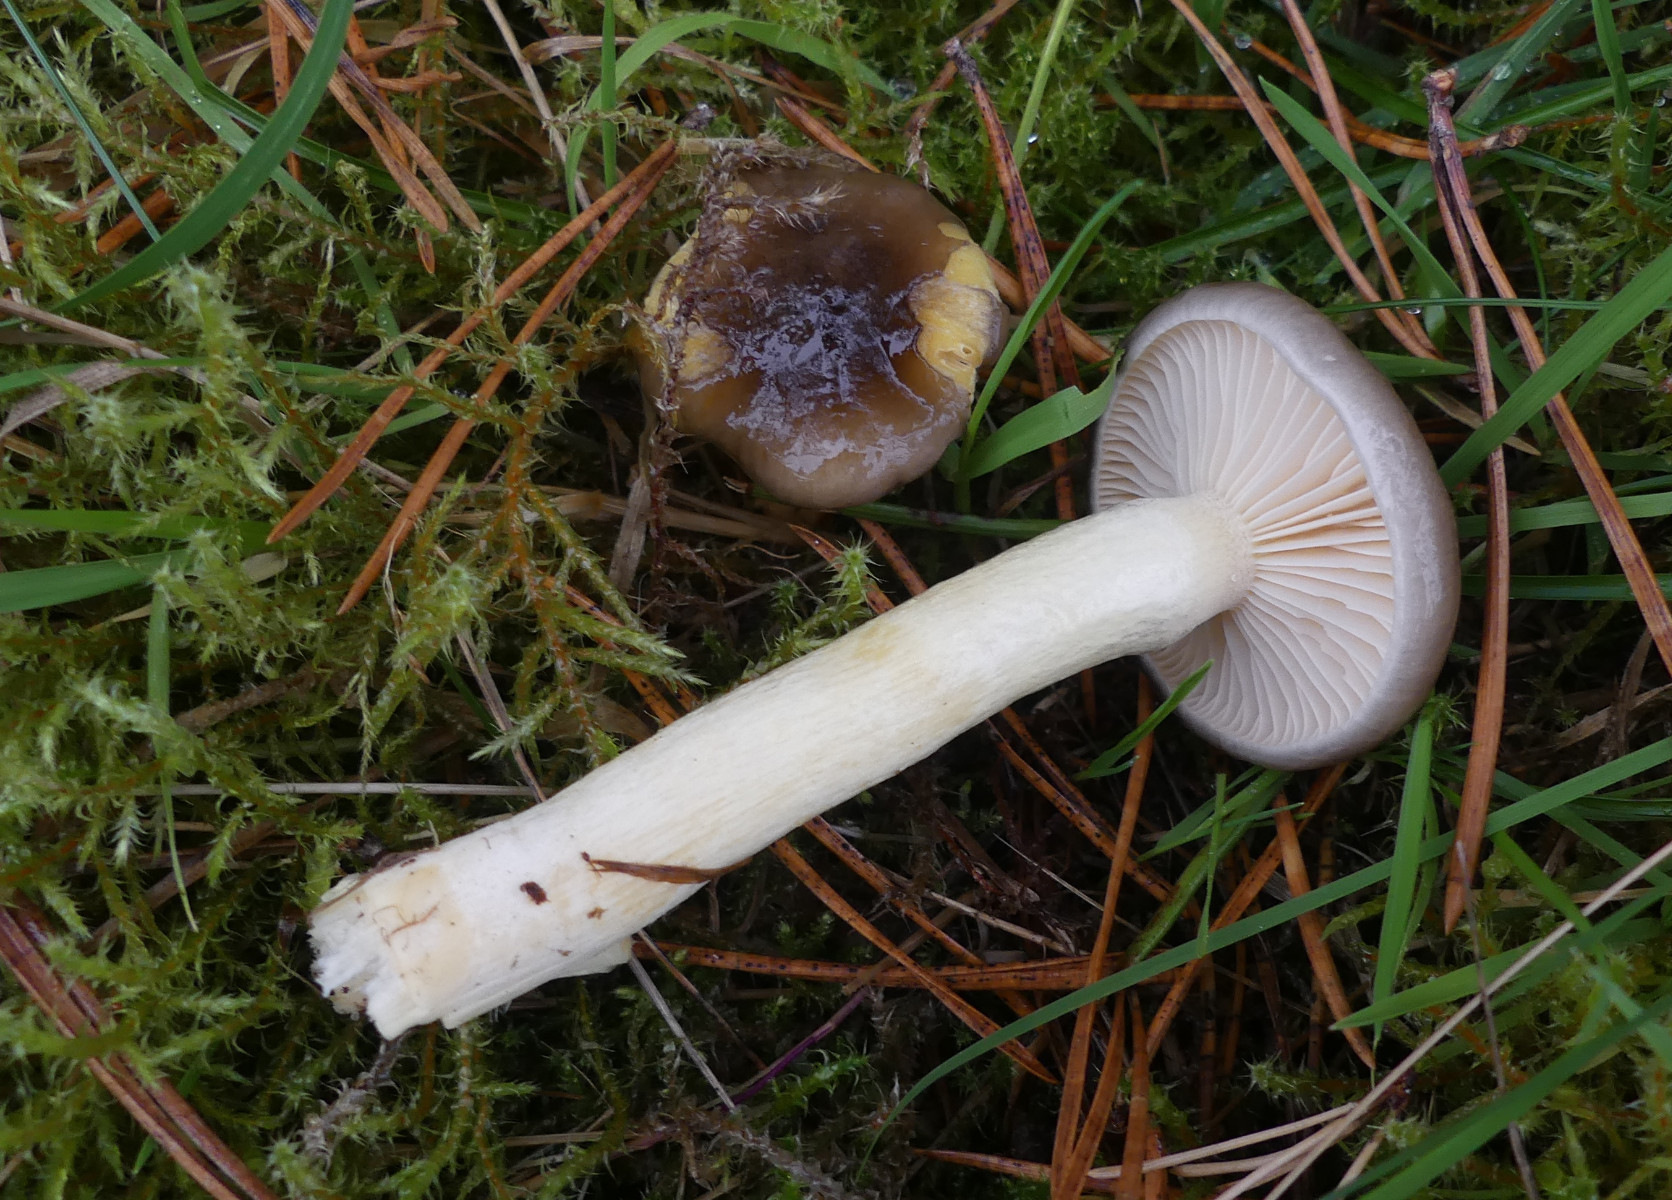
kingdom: Fungi
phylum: Basidiomycota
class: Agaricomycetes
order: Agaricales
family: Hygrophoraceae
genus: Hygrophorus
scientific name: Hygrophorus hypothejus
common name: frost-sneglehat
